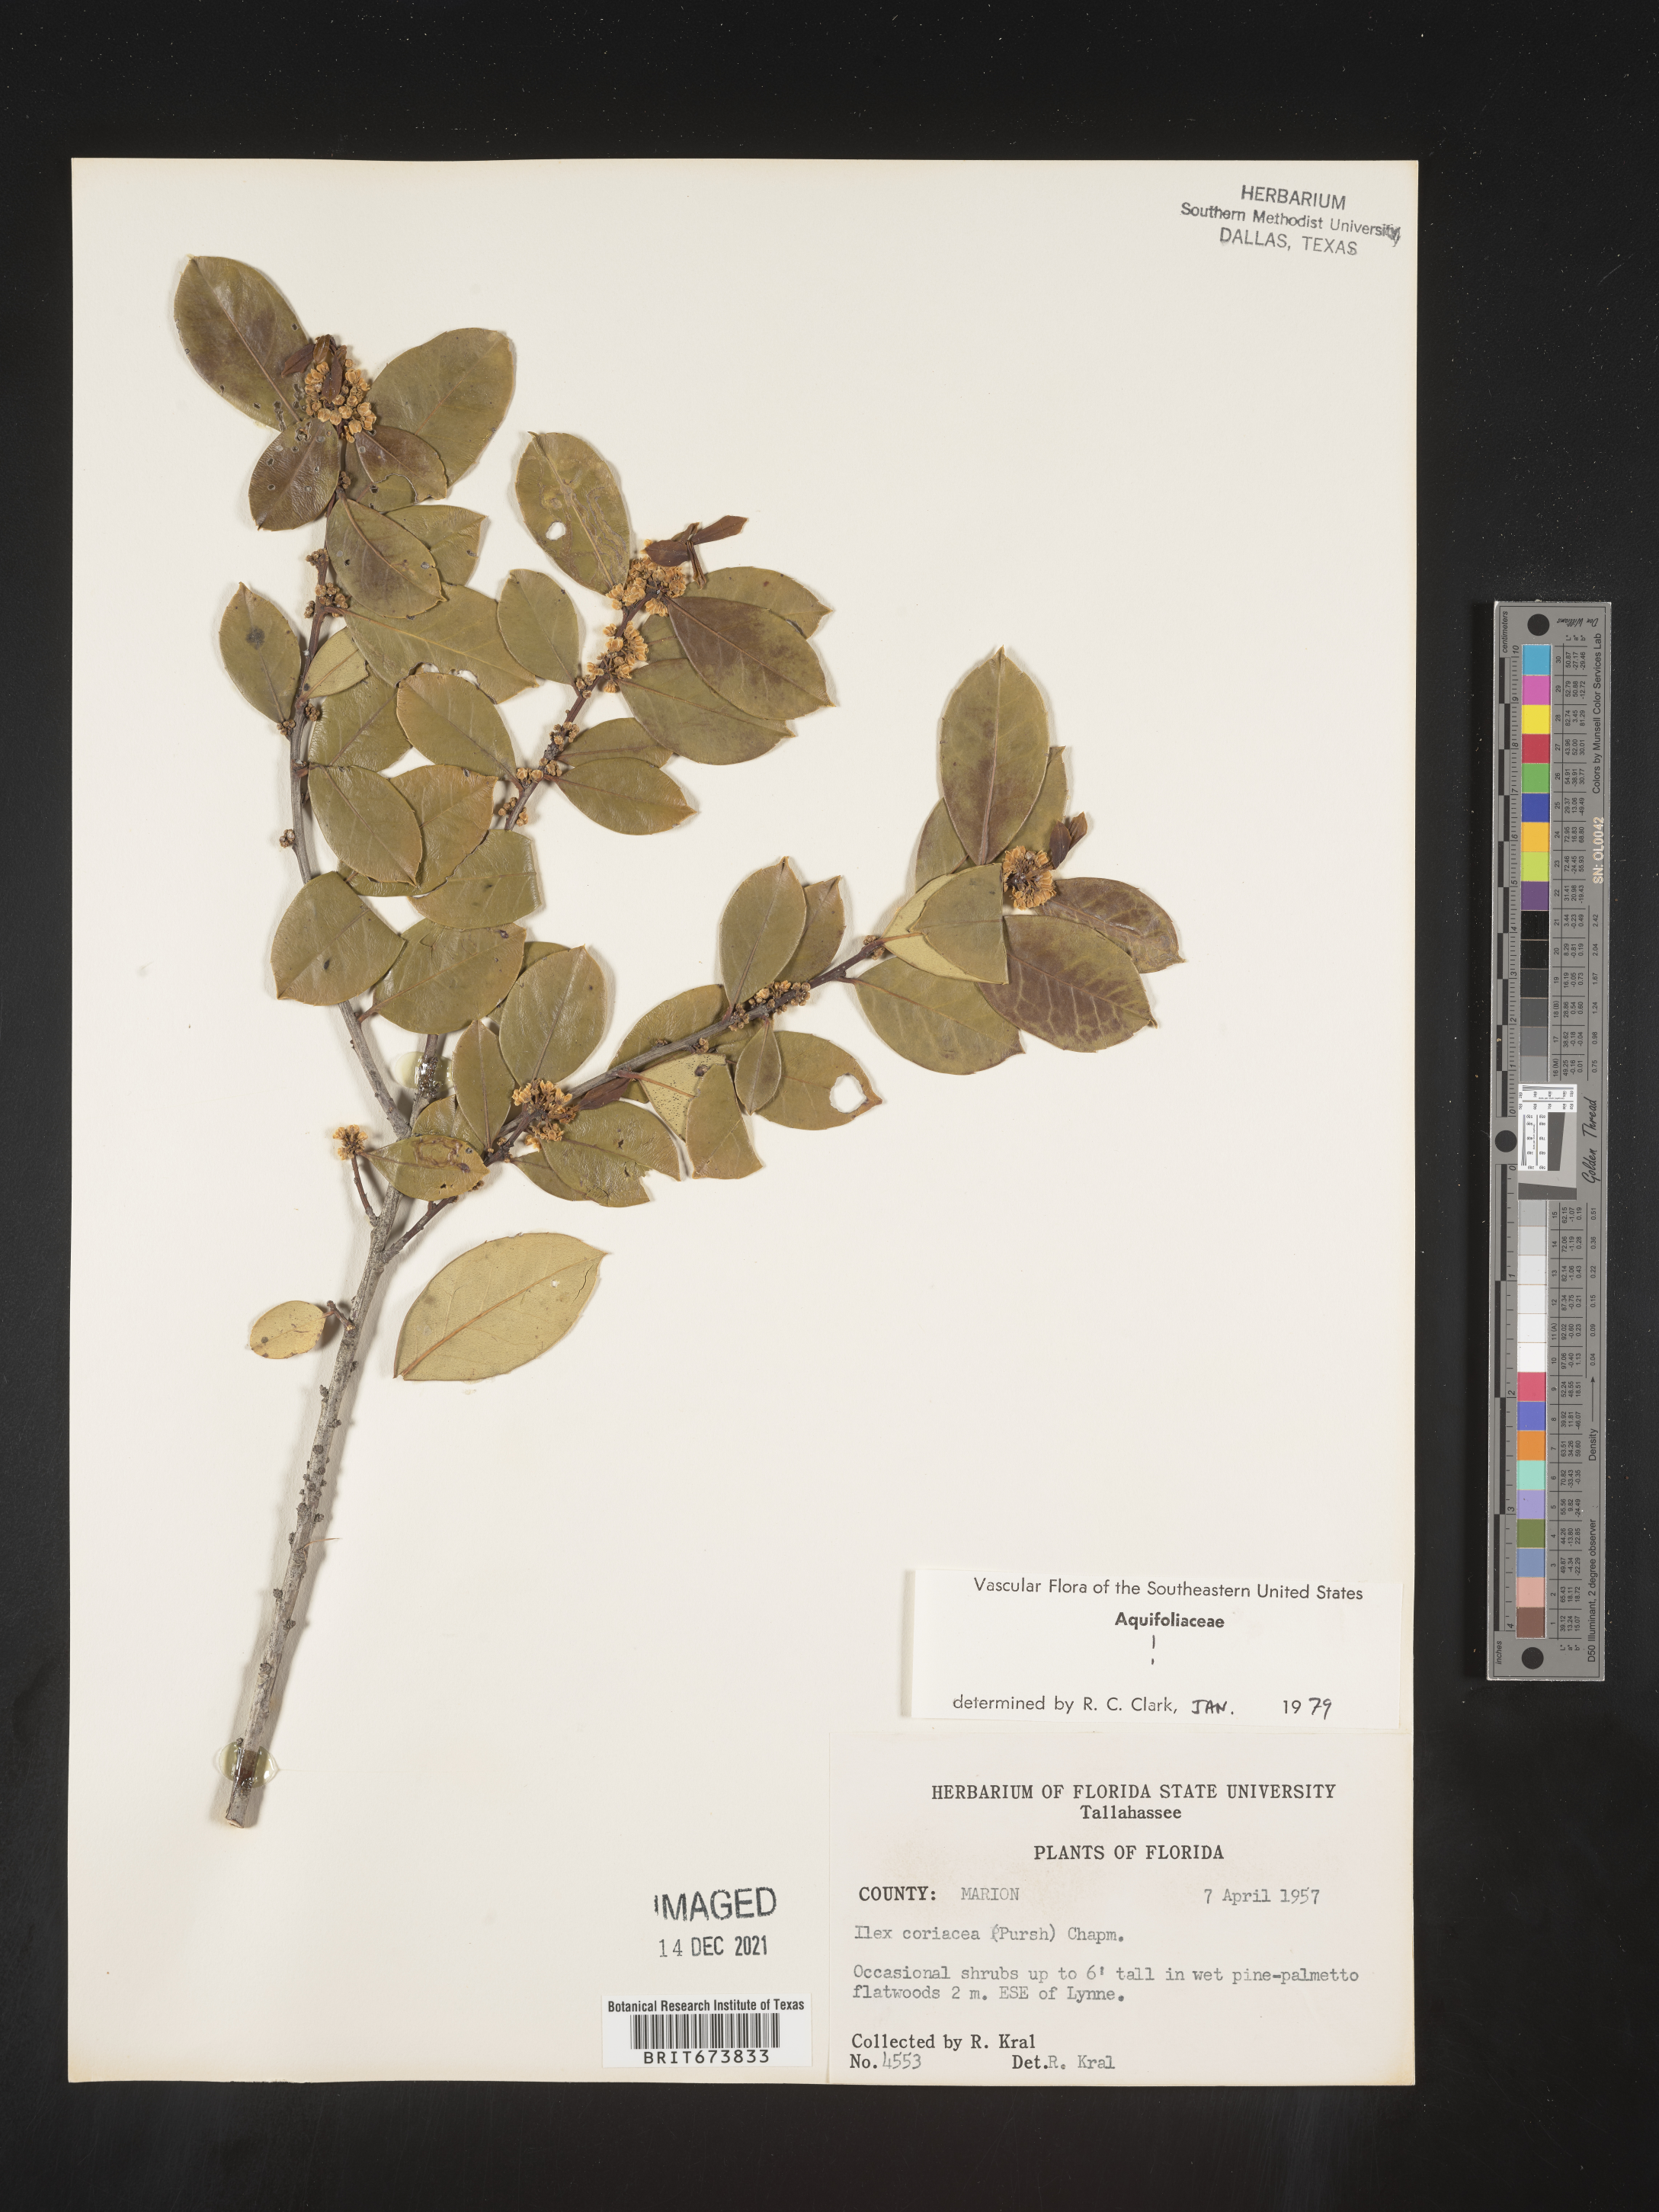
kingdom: Plantae
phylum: Tracheophyta
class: Magnoliopsida
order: Aquifoliales
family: Aquifoliaceae
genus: Ilex
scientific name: Ilex coriacea
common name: Sweet gallberry
